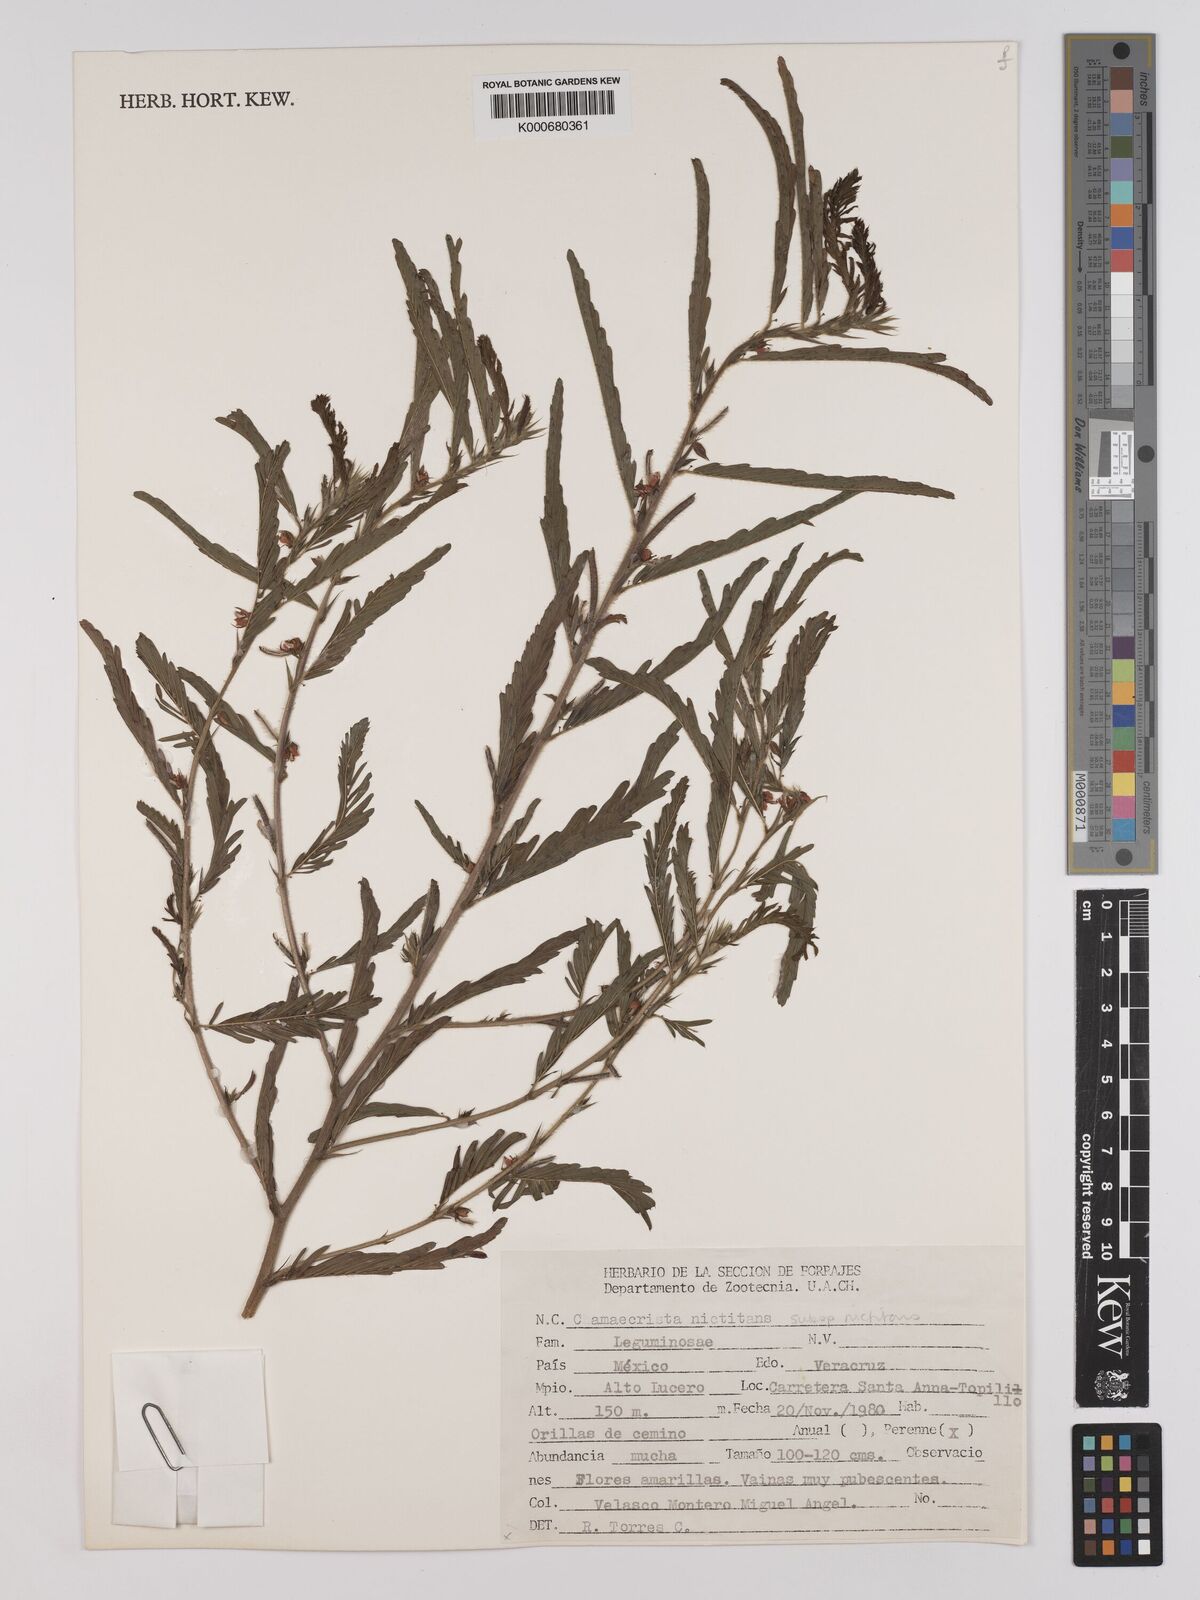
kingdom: Plantae
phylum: Tracheophyta
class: Magnoliopsida
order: Fabales
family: Fabaceae
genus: Chamaecrista
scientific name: Chamaecrista nictitans
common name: Sensitive cassia
